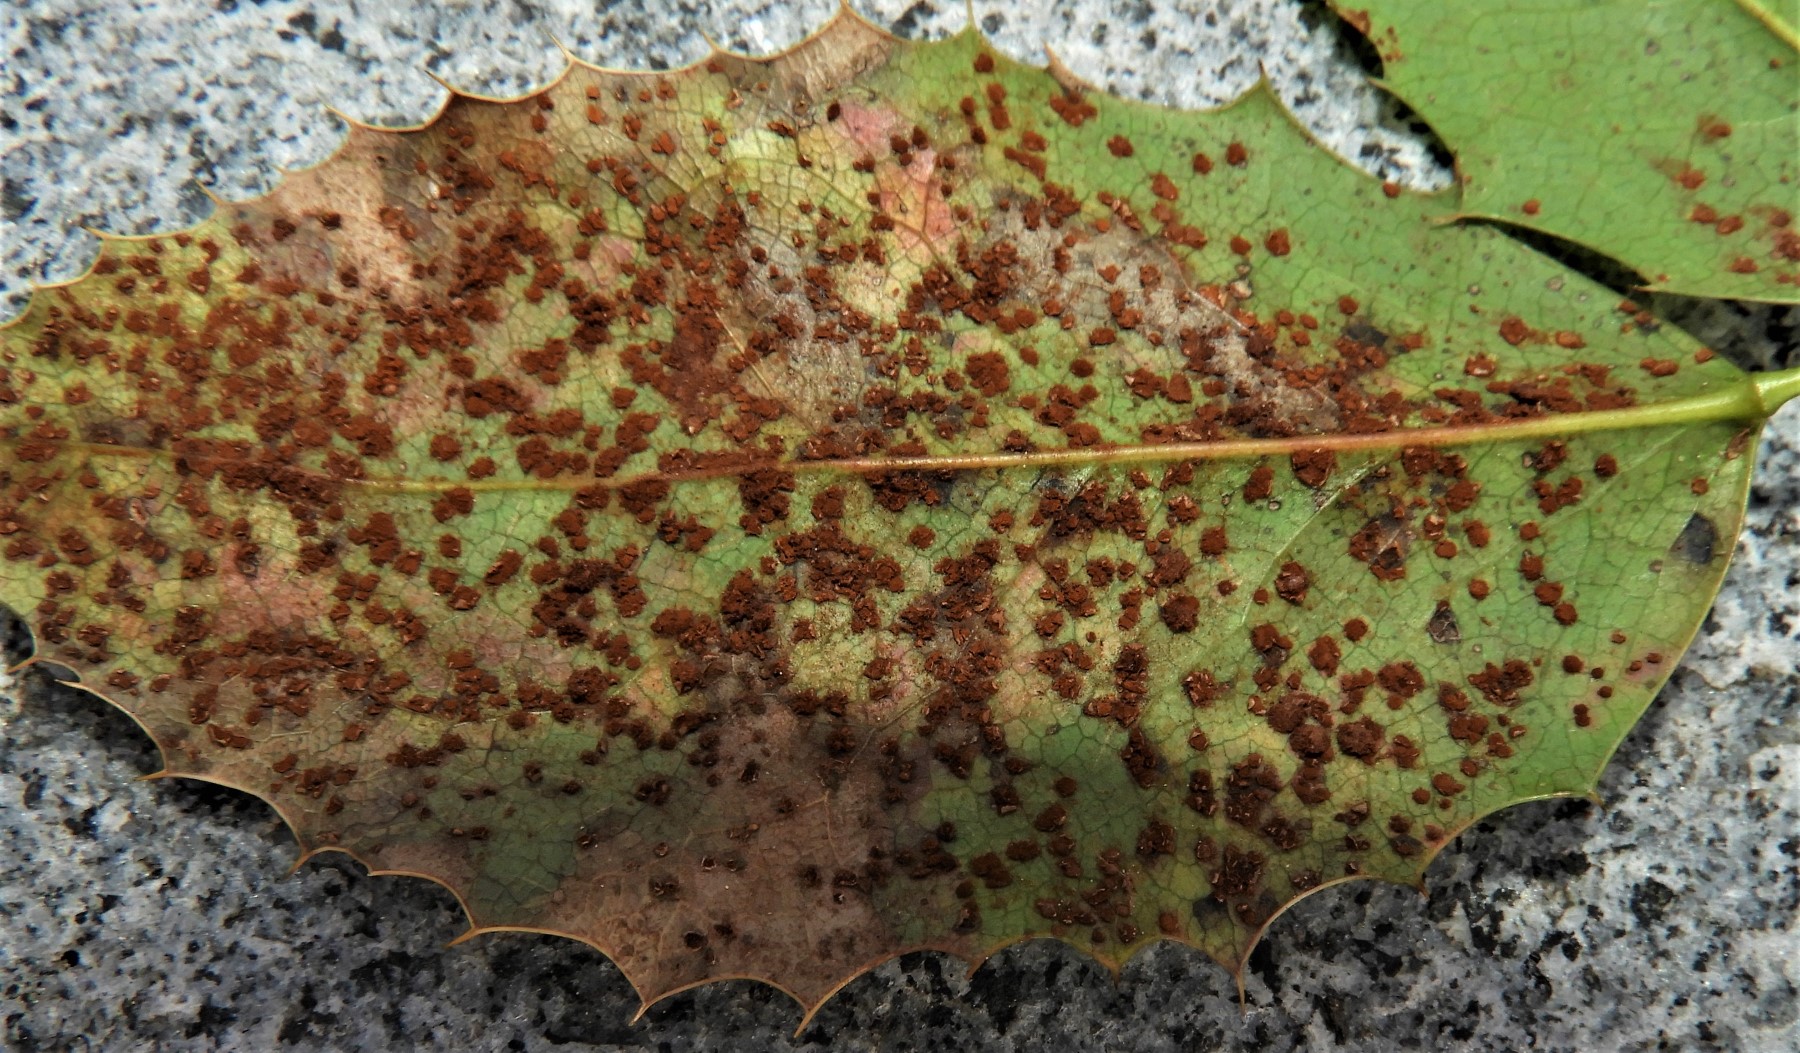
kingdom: Fungi
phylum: Basidiomycota
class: Pucciniomycetes
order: Pucciniales
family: Pucciniaceae
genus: Cumminsiella
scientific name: Cumminsiella mirabilissima
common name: mahonierust
